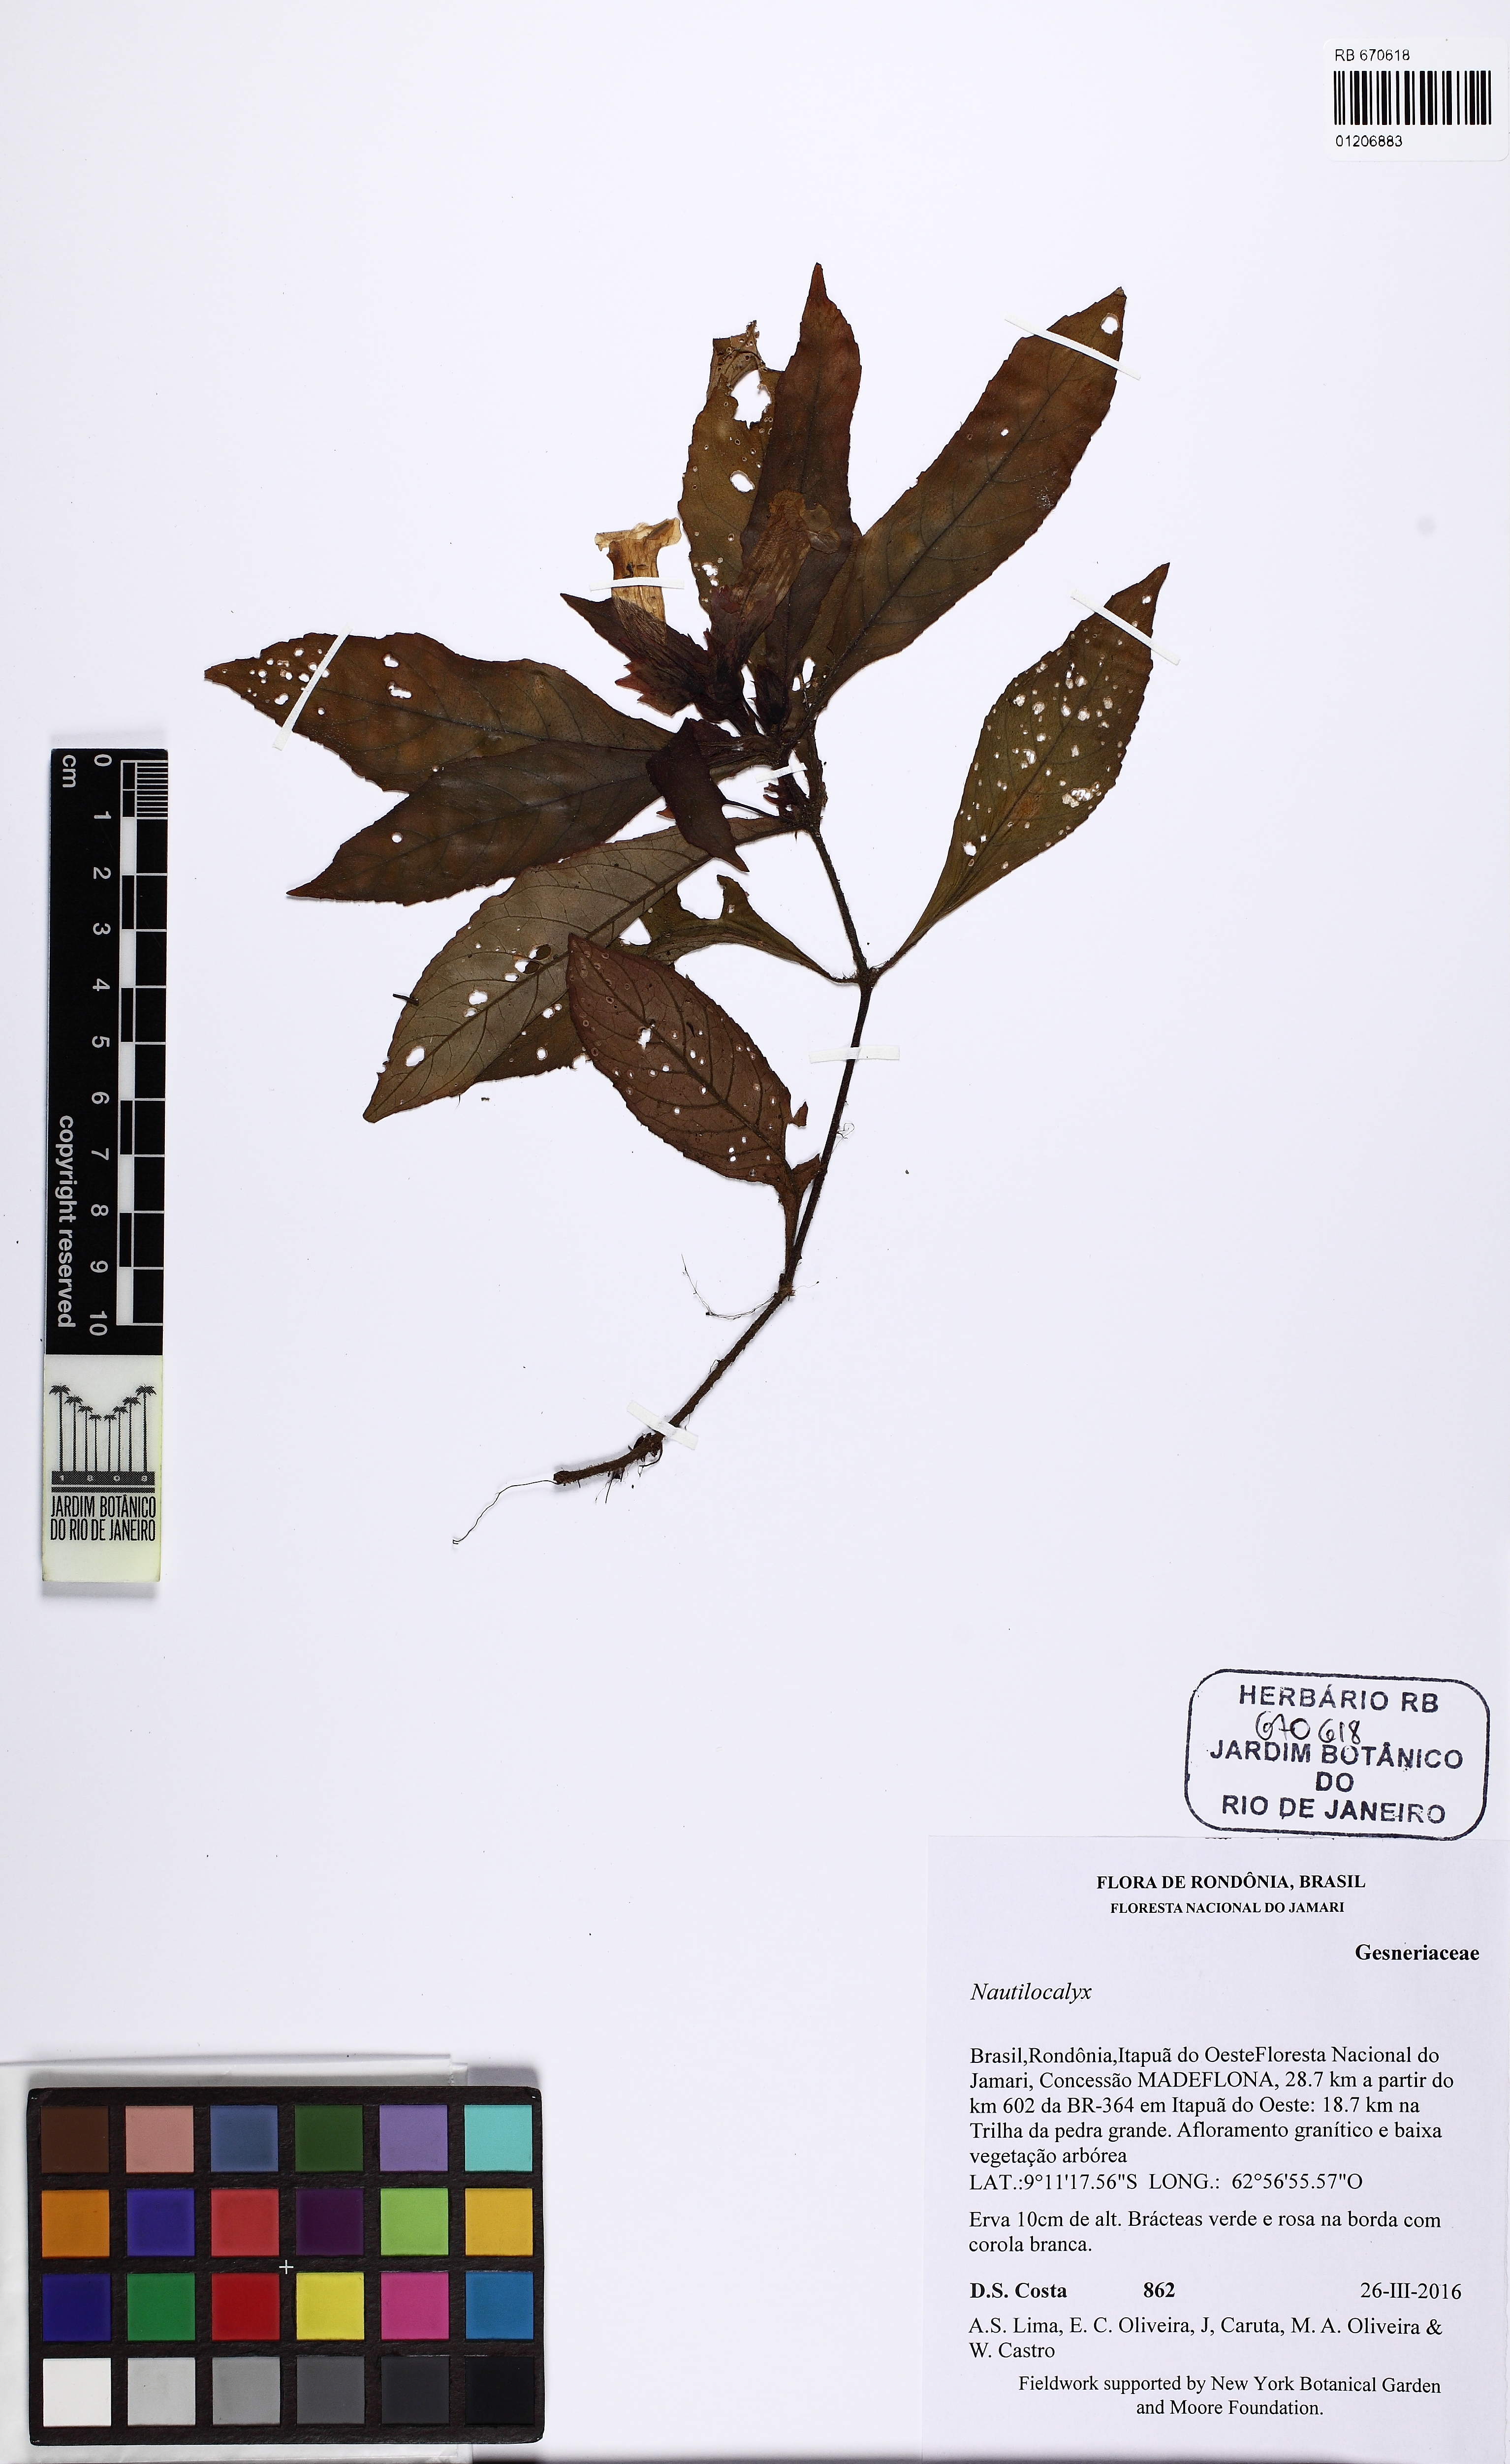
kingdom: Plantae
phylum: Tracheophyta
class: Magnoliopsida
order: Lamiales
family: Gesneriaceae
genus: Nautilocalyx
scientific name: Nautilocalyx
